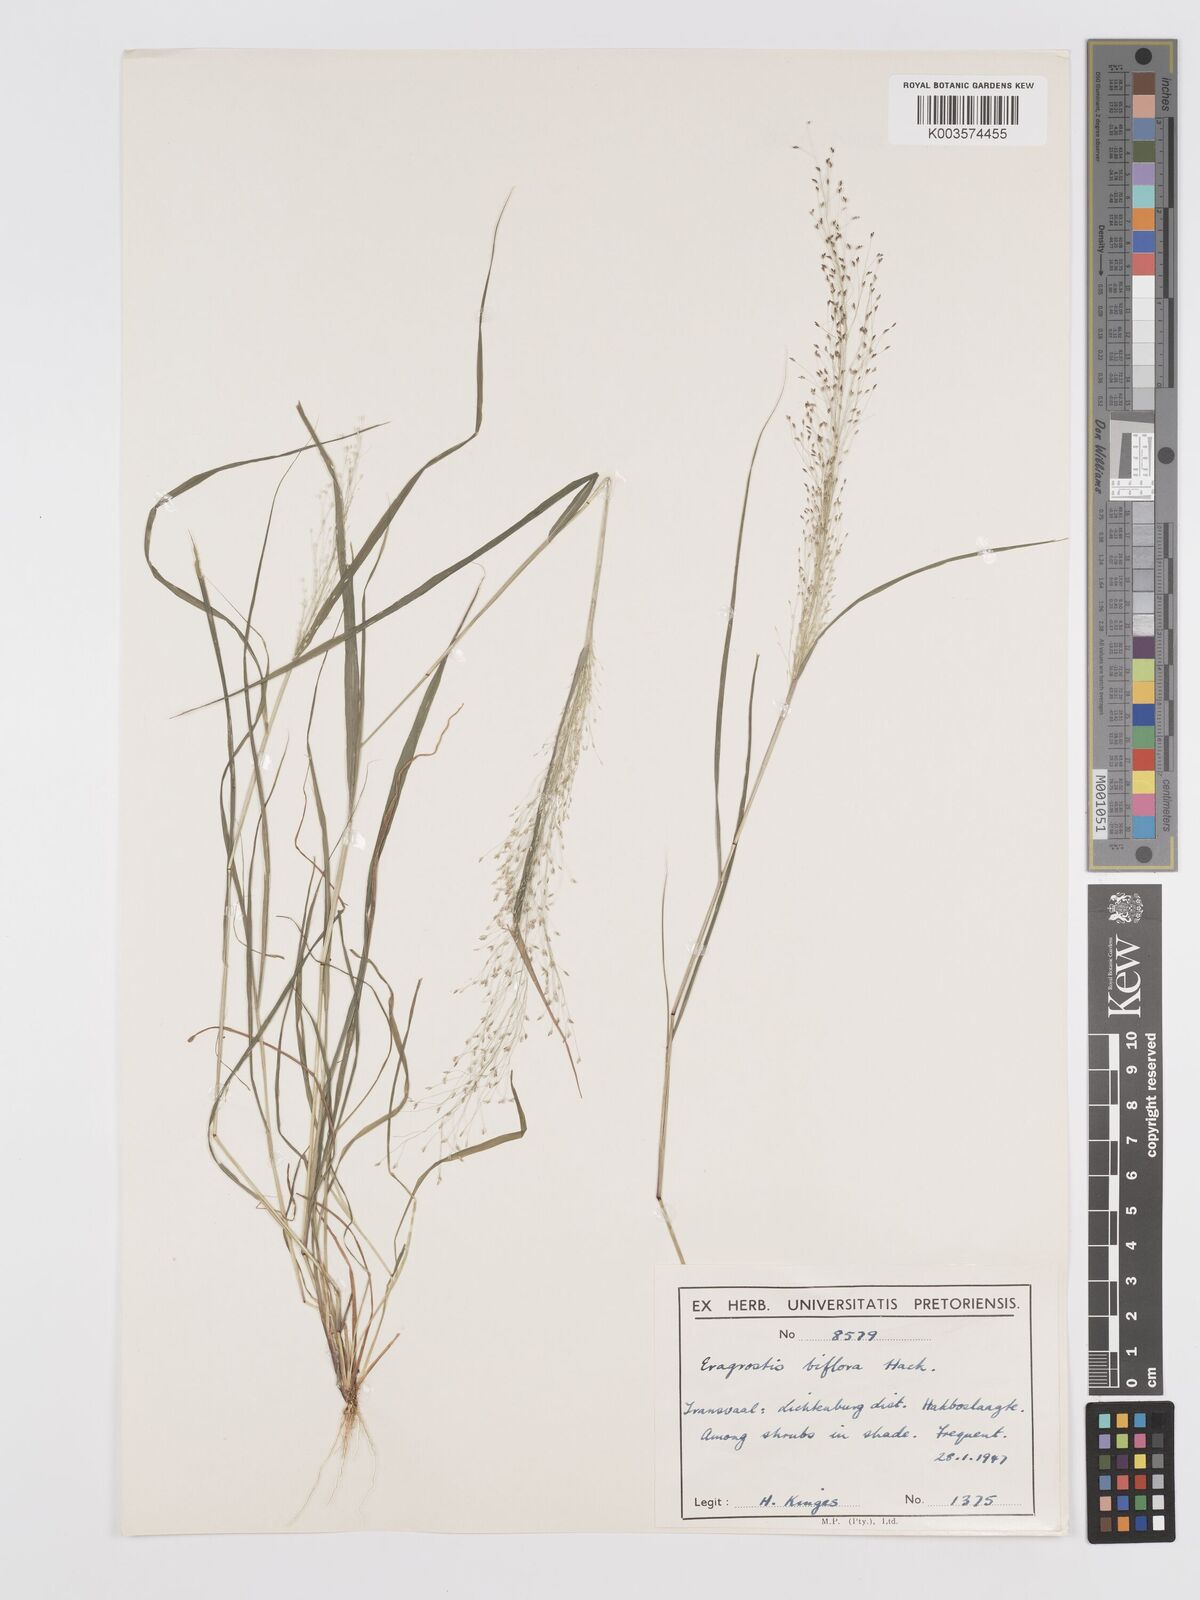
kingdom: Plantae
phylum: Tracheophyta
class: Liliopsida
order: Poales
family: Poaceae
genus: Eragrostis
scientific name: Eragrostis biflora
